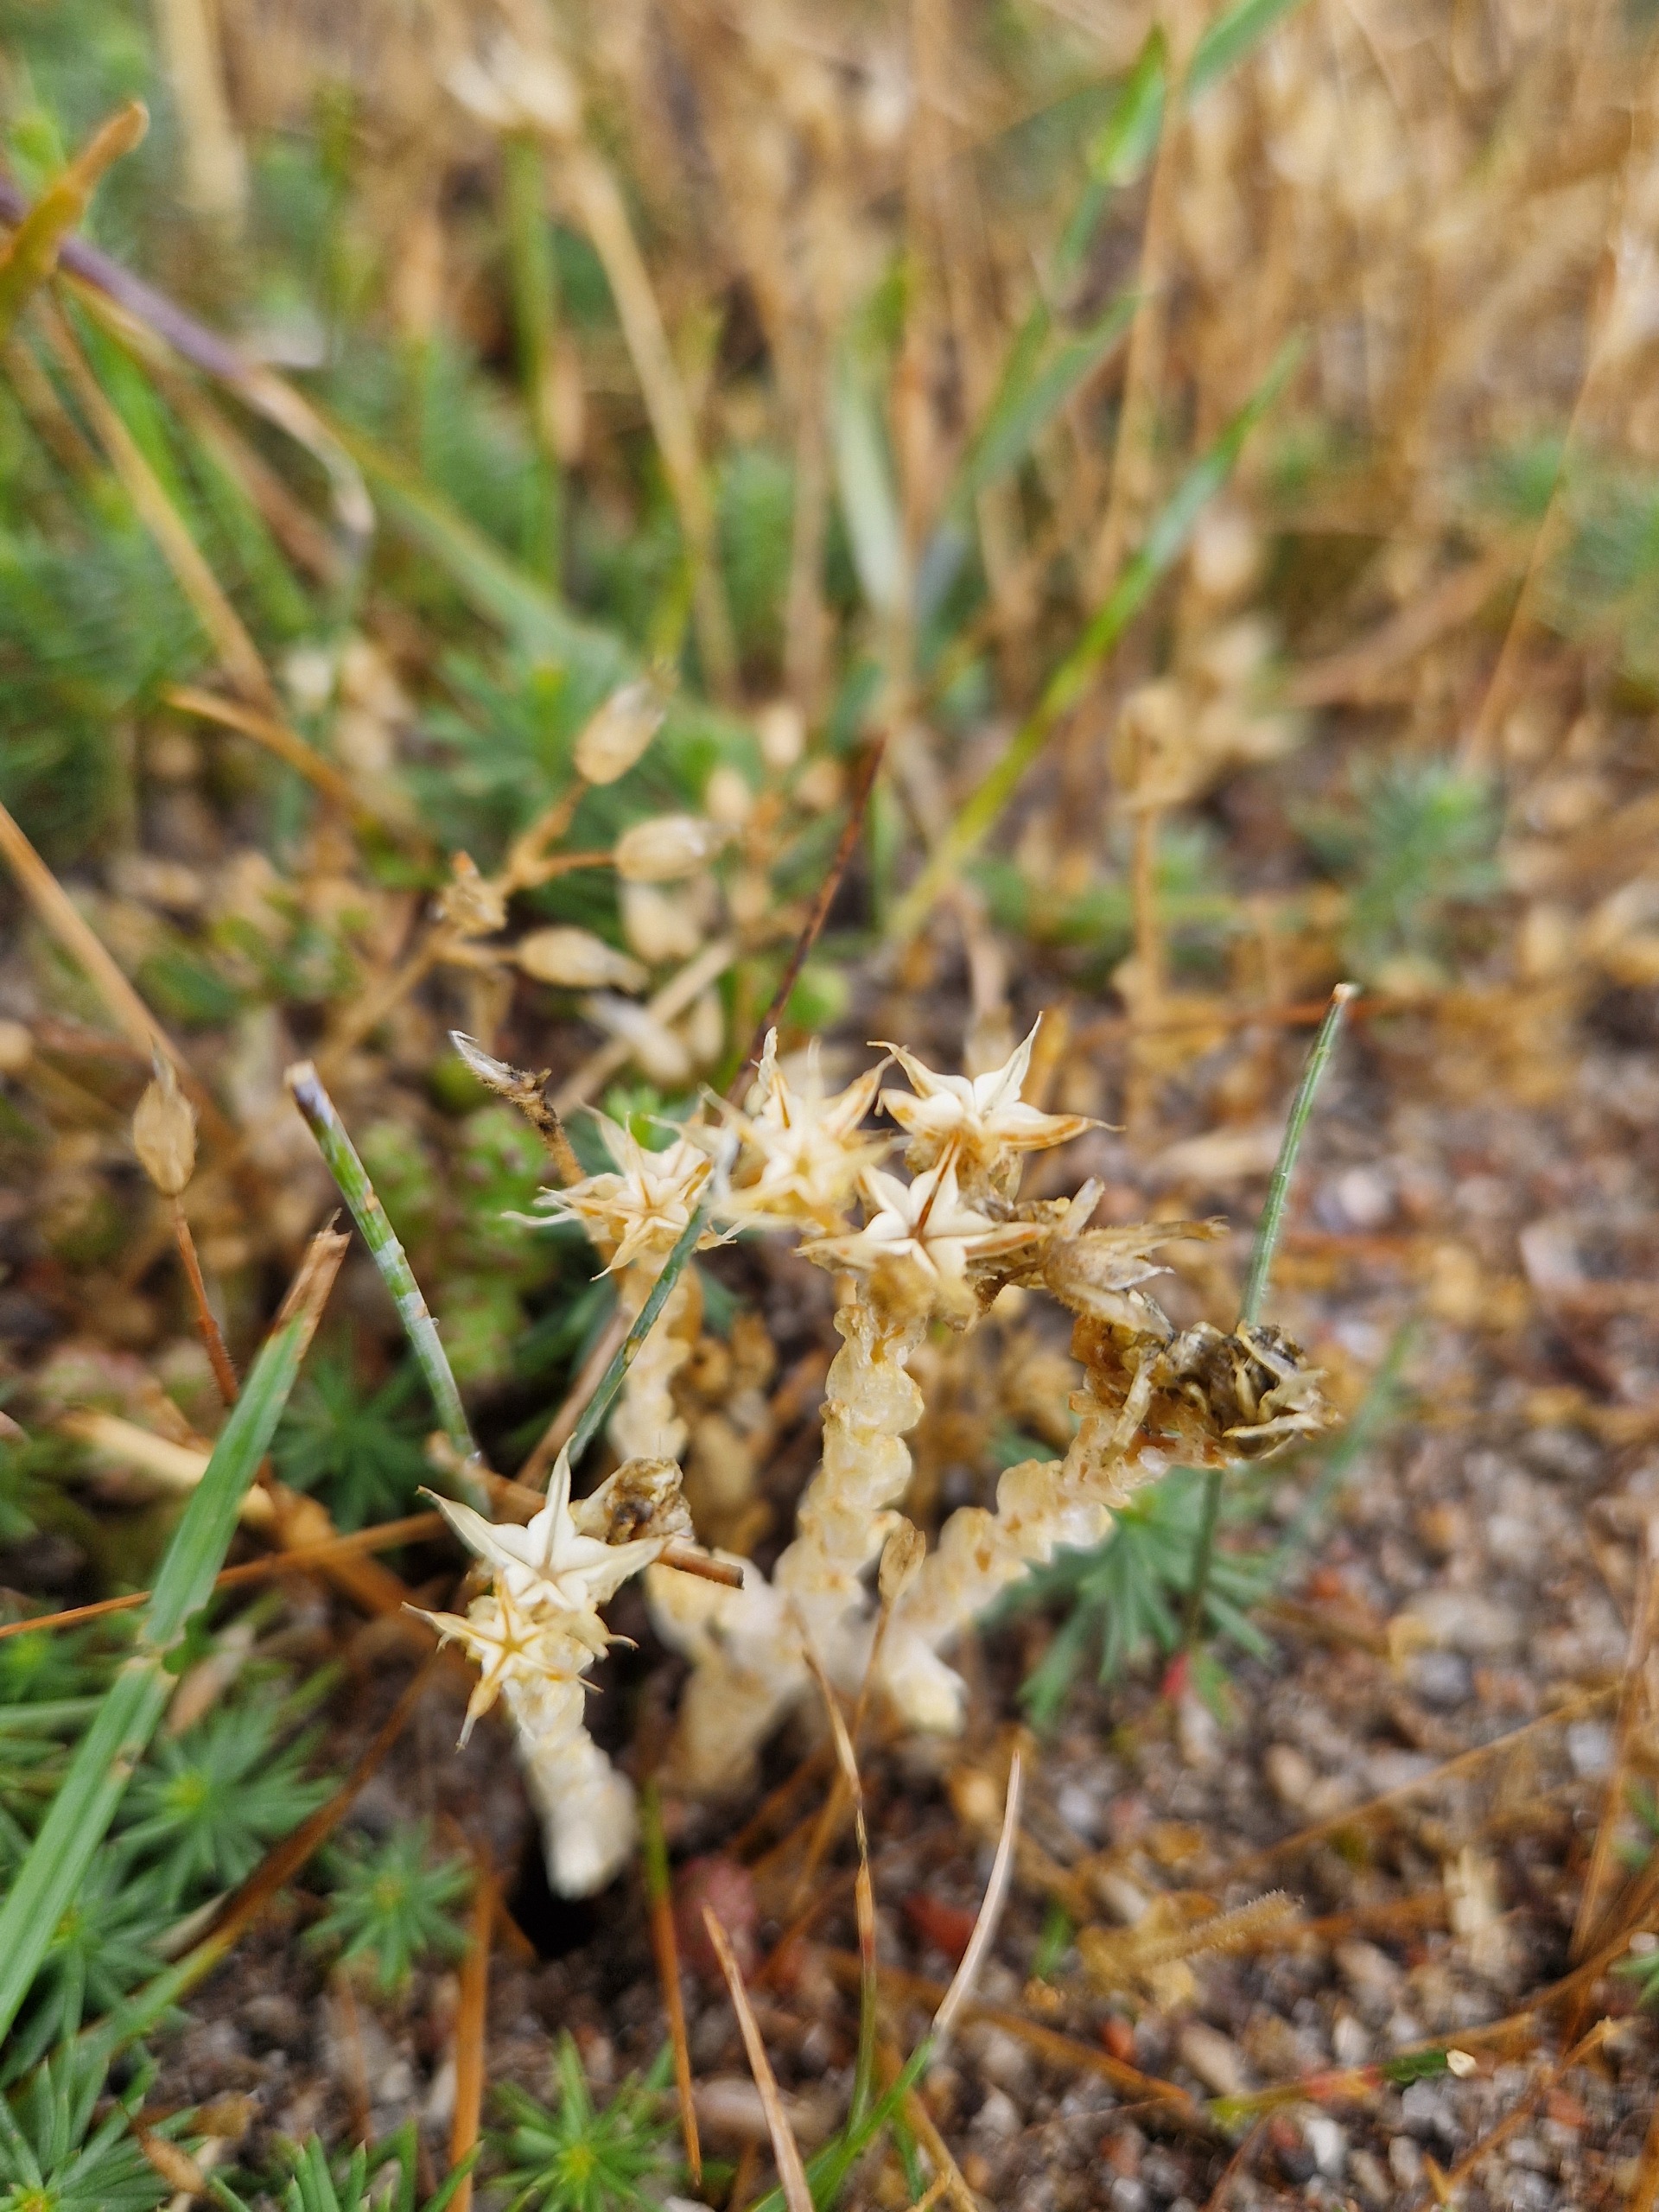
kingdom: Plantae
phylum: Tracheophyta
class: Magnoliopsida
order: Saxifragales
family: Crassulaceae
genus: Sedum
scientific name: Sedum acre
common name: Bidende stenurt
